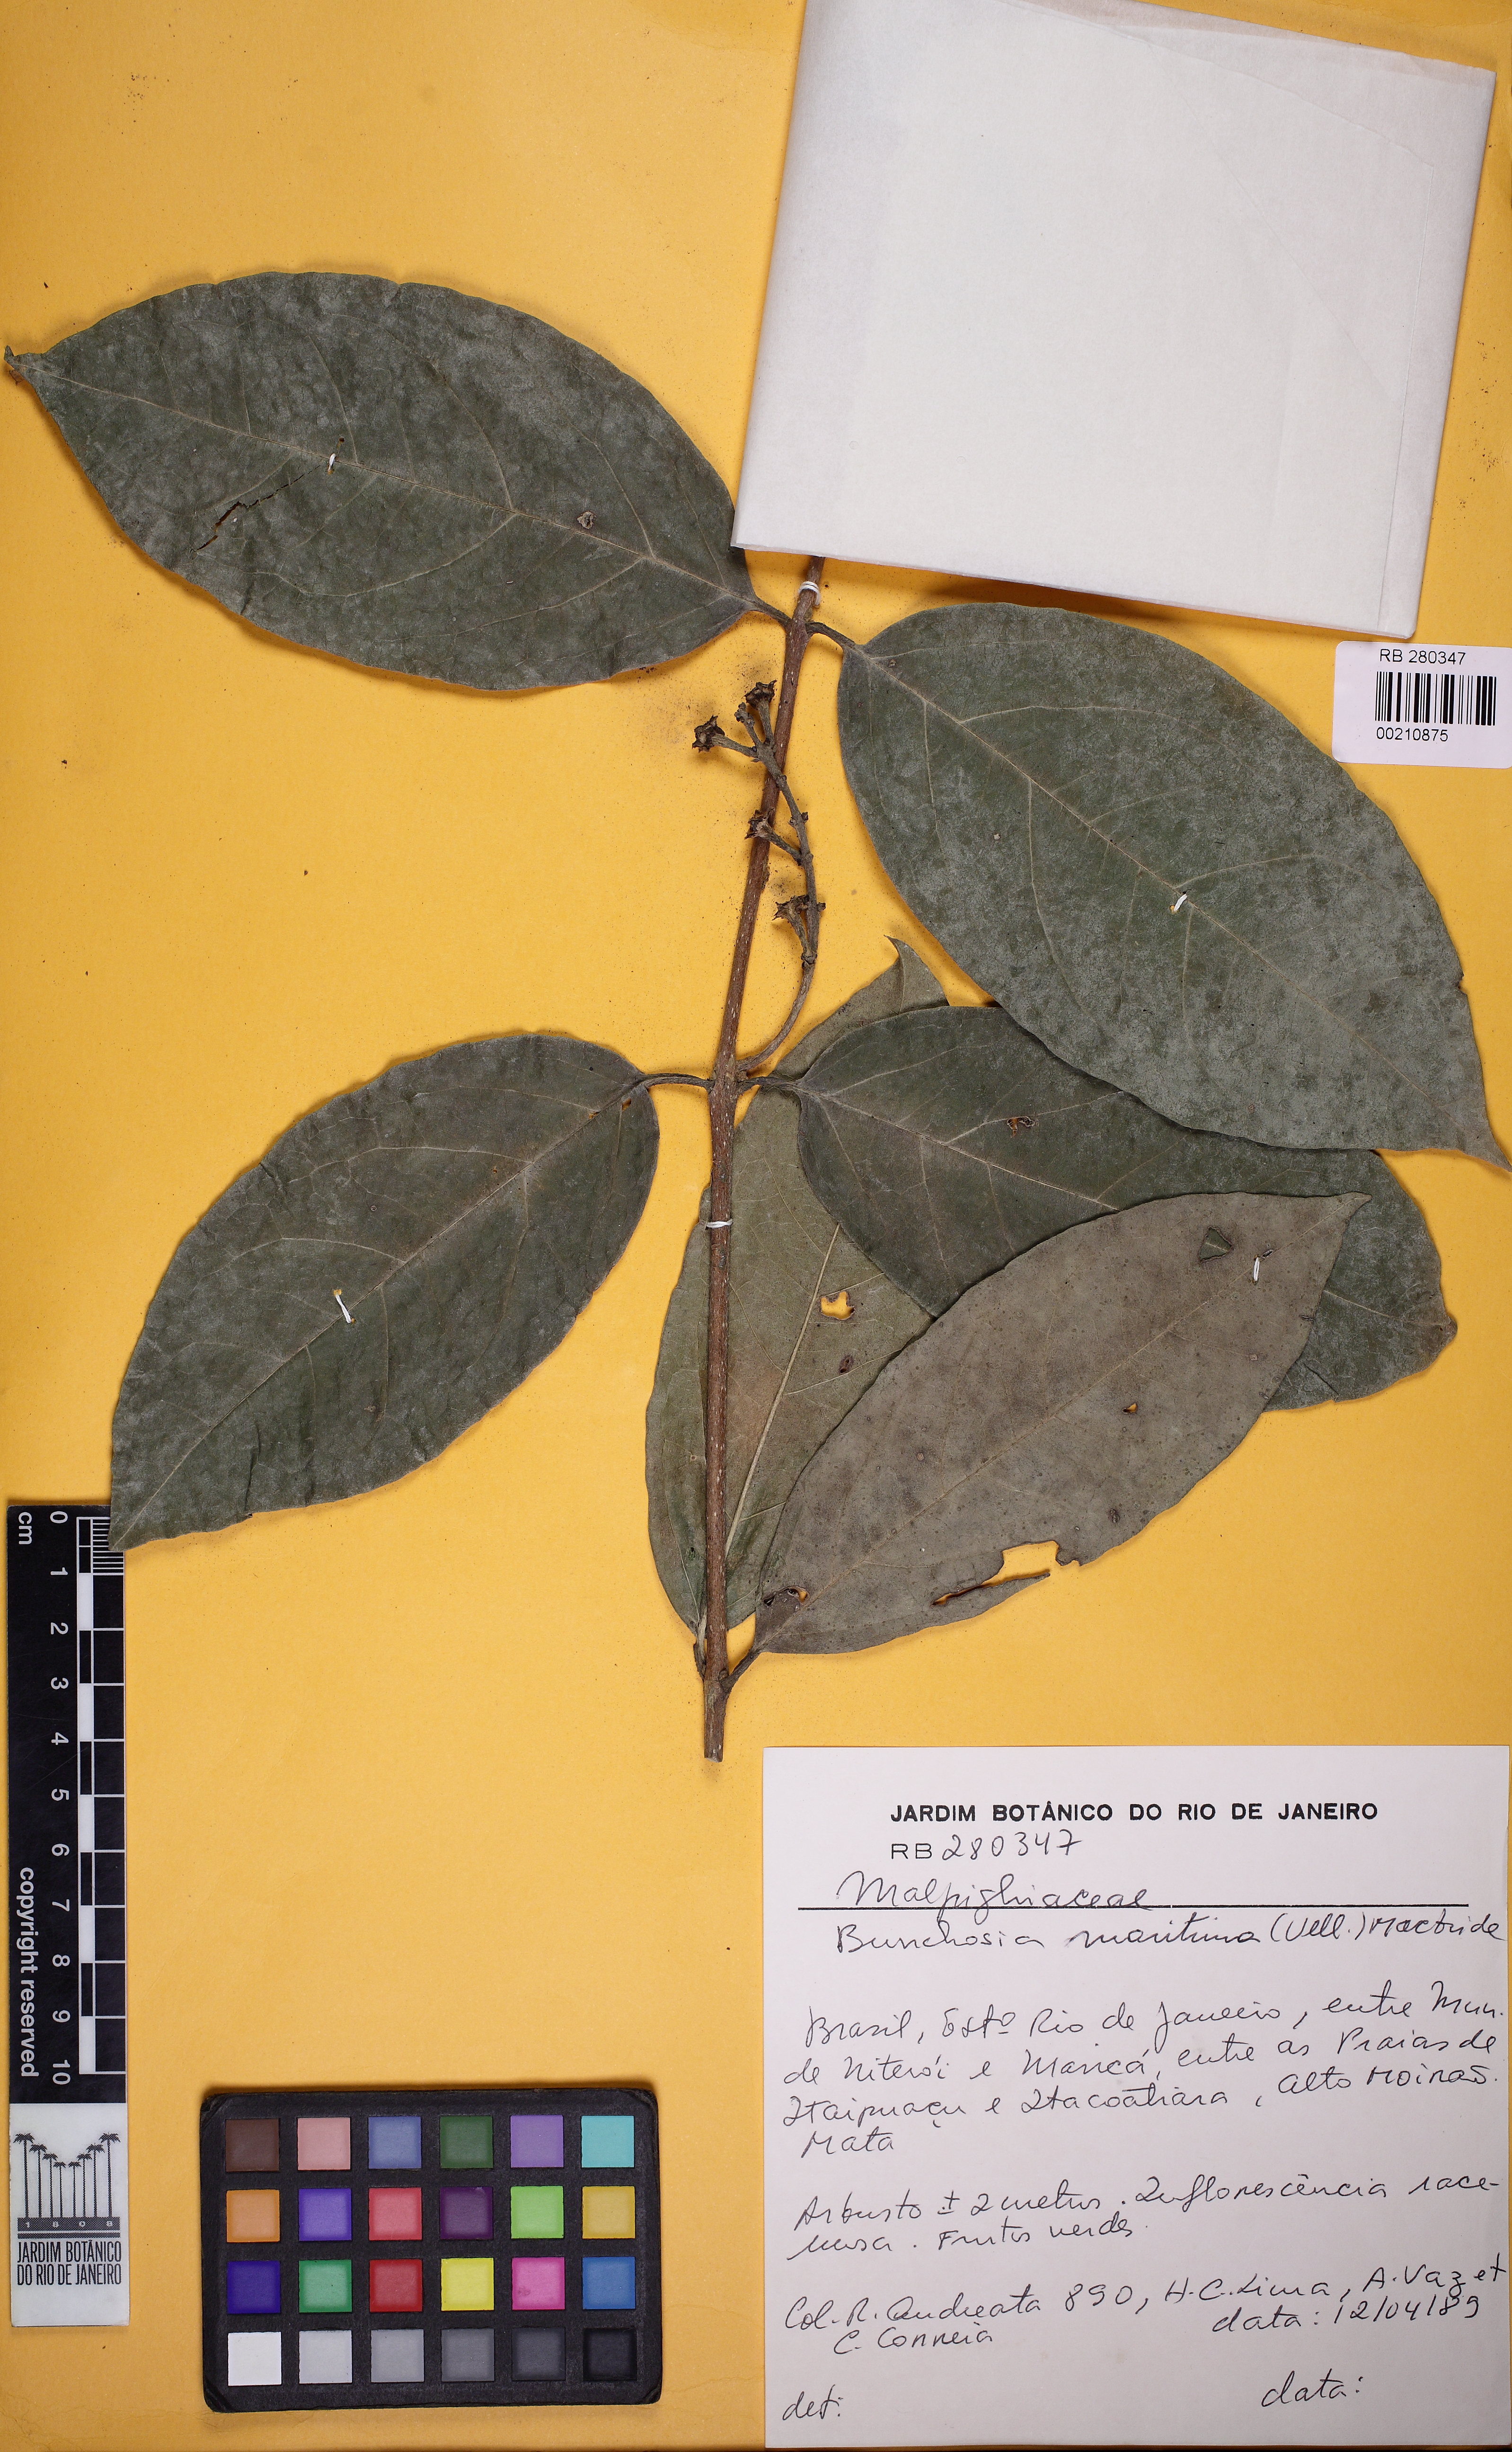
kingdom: Plantae
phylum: Tracheophyta
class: Magnoliopsida
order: Malpighiales
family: Malpighiaceae
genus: Bunchosia
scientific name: Bunchosia maritima
